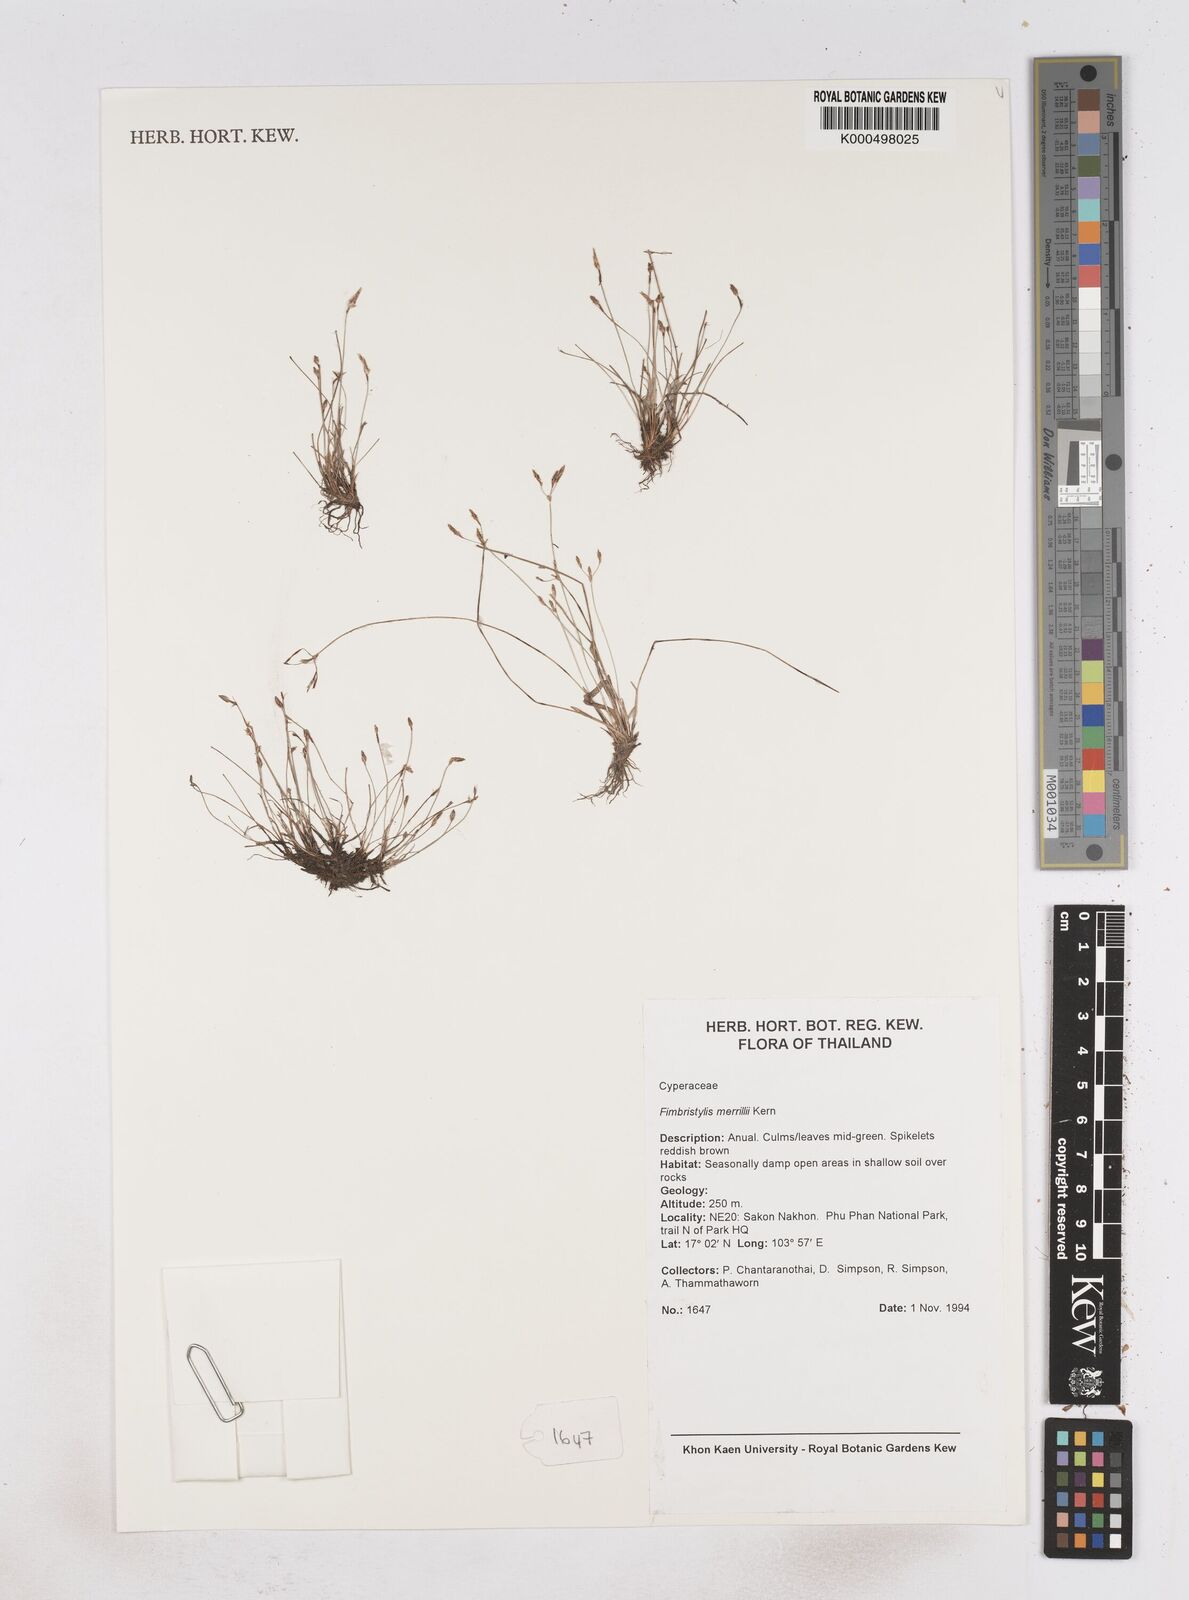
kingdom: Plantae
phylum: Tracheophyta
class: Liliopsida
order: Poales
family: Cyperaceae
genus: Fimbristylis
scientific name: Fimbristylis merrillii
